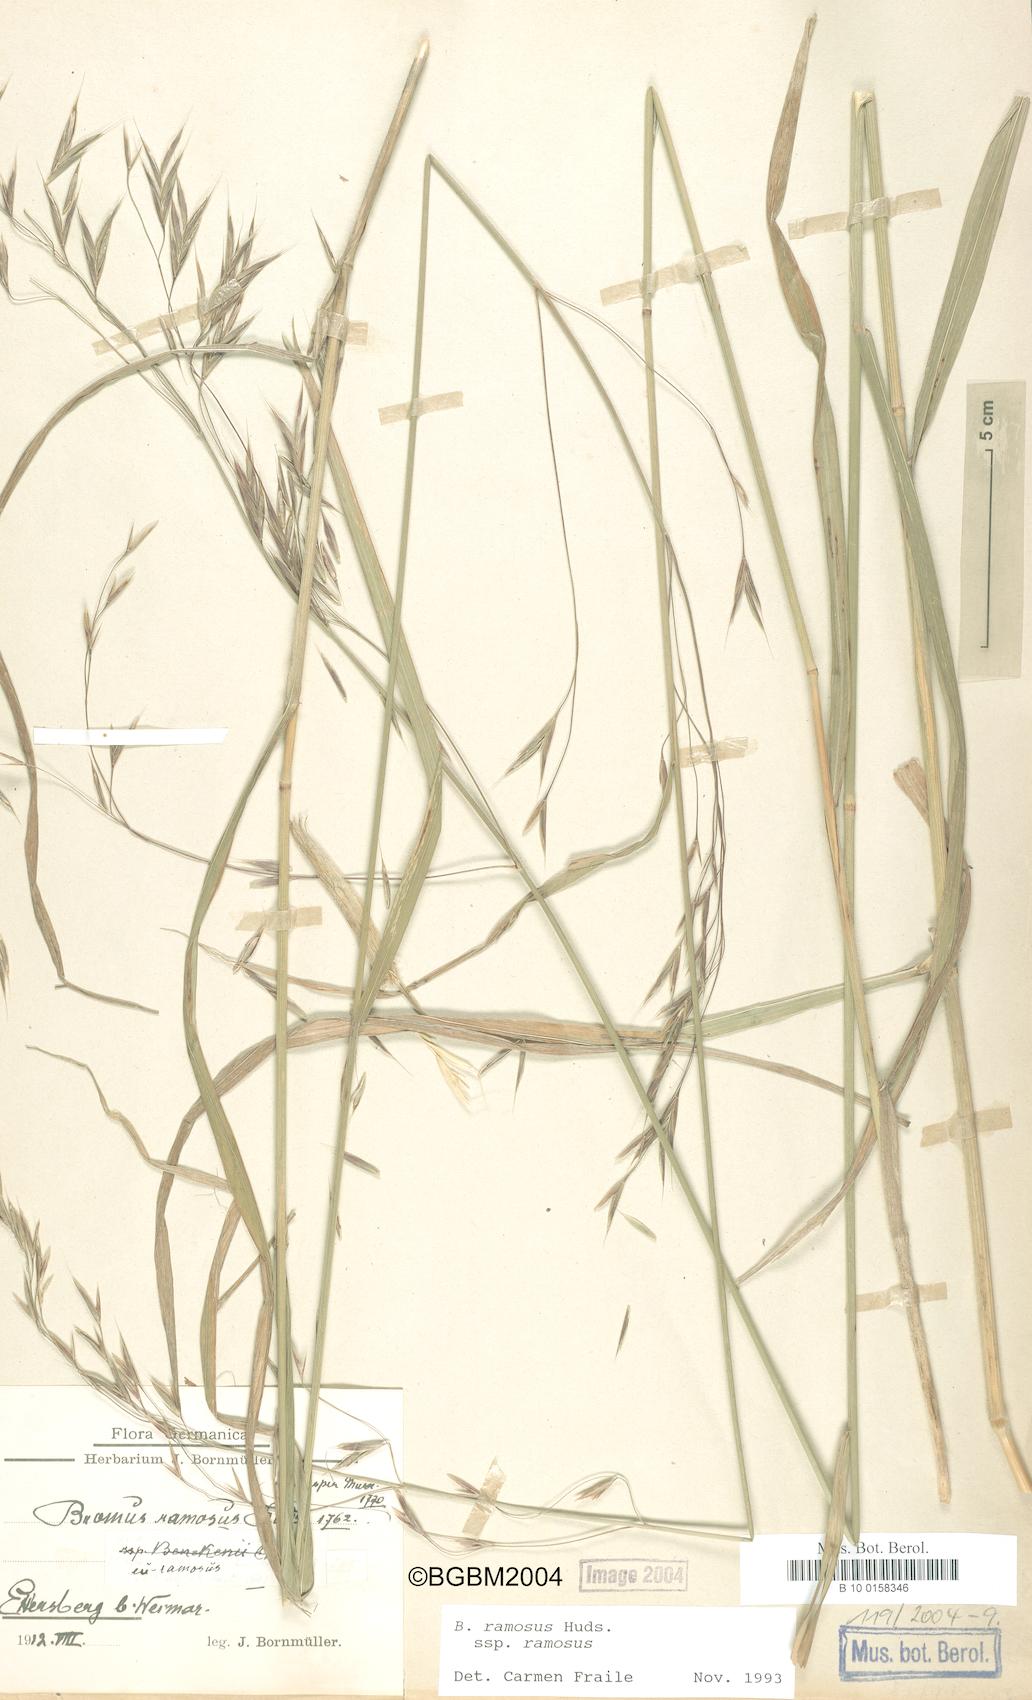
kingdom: Plantae
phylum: Tracheophyta
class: Liliopsida
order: Poales
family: Poaceae
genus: Bromus
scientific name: Bromus ramosus
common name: Hairy brome
